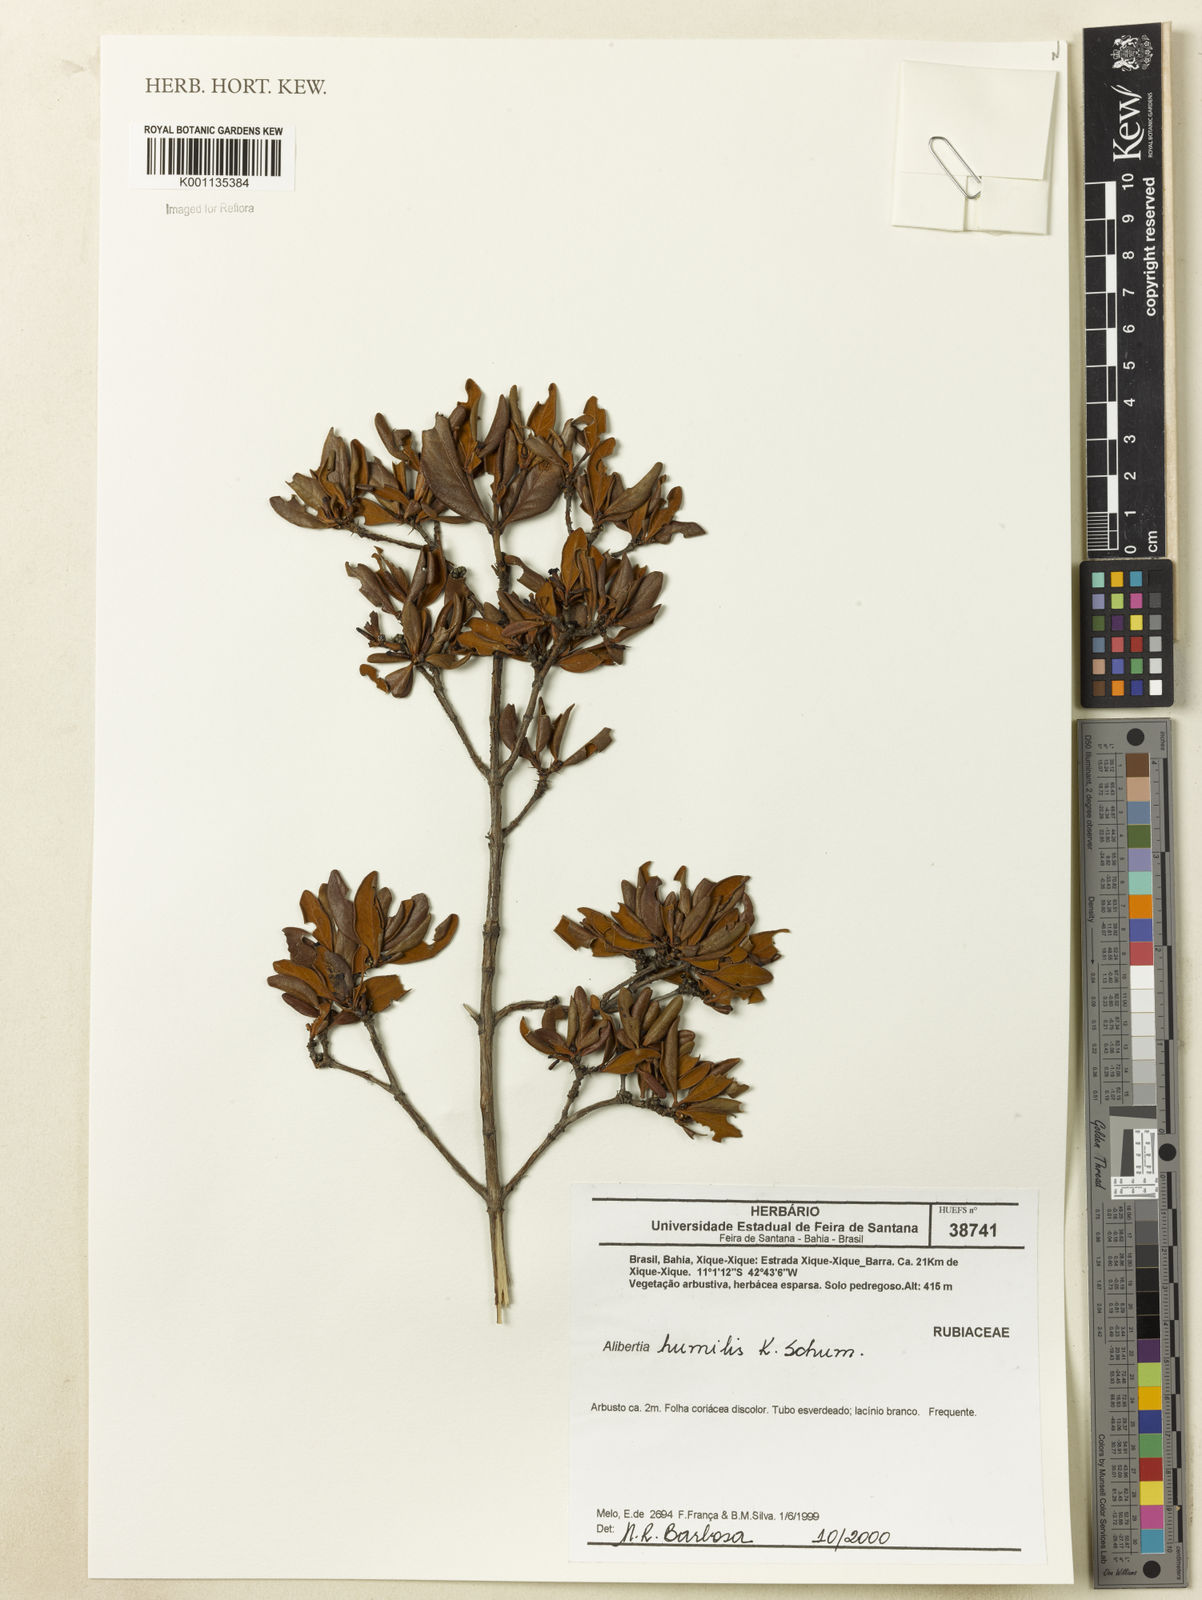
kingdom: Plantae
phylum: Tracheophyta
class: Magnoliopsida
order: Gentianales
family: Rubiaceae
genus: Cordiera
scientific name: Cordiera humilis
